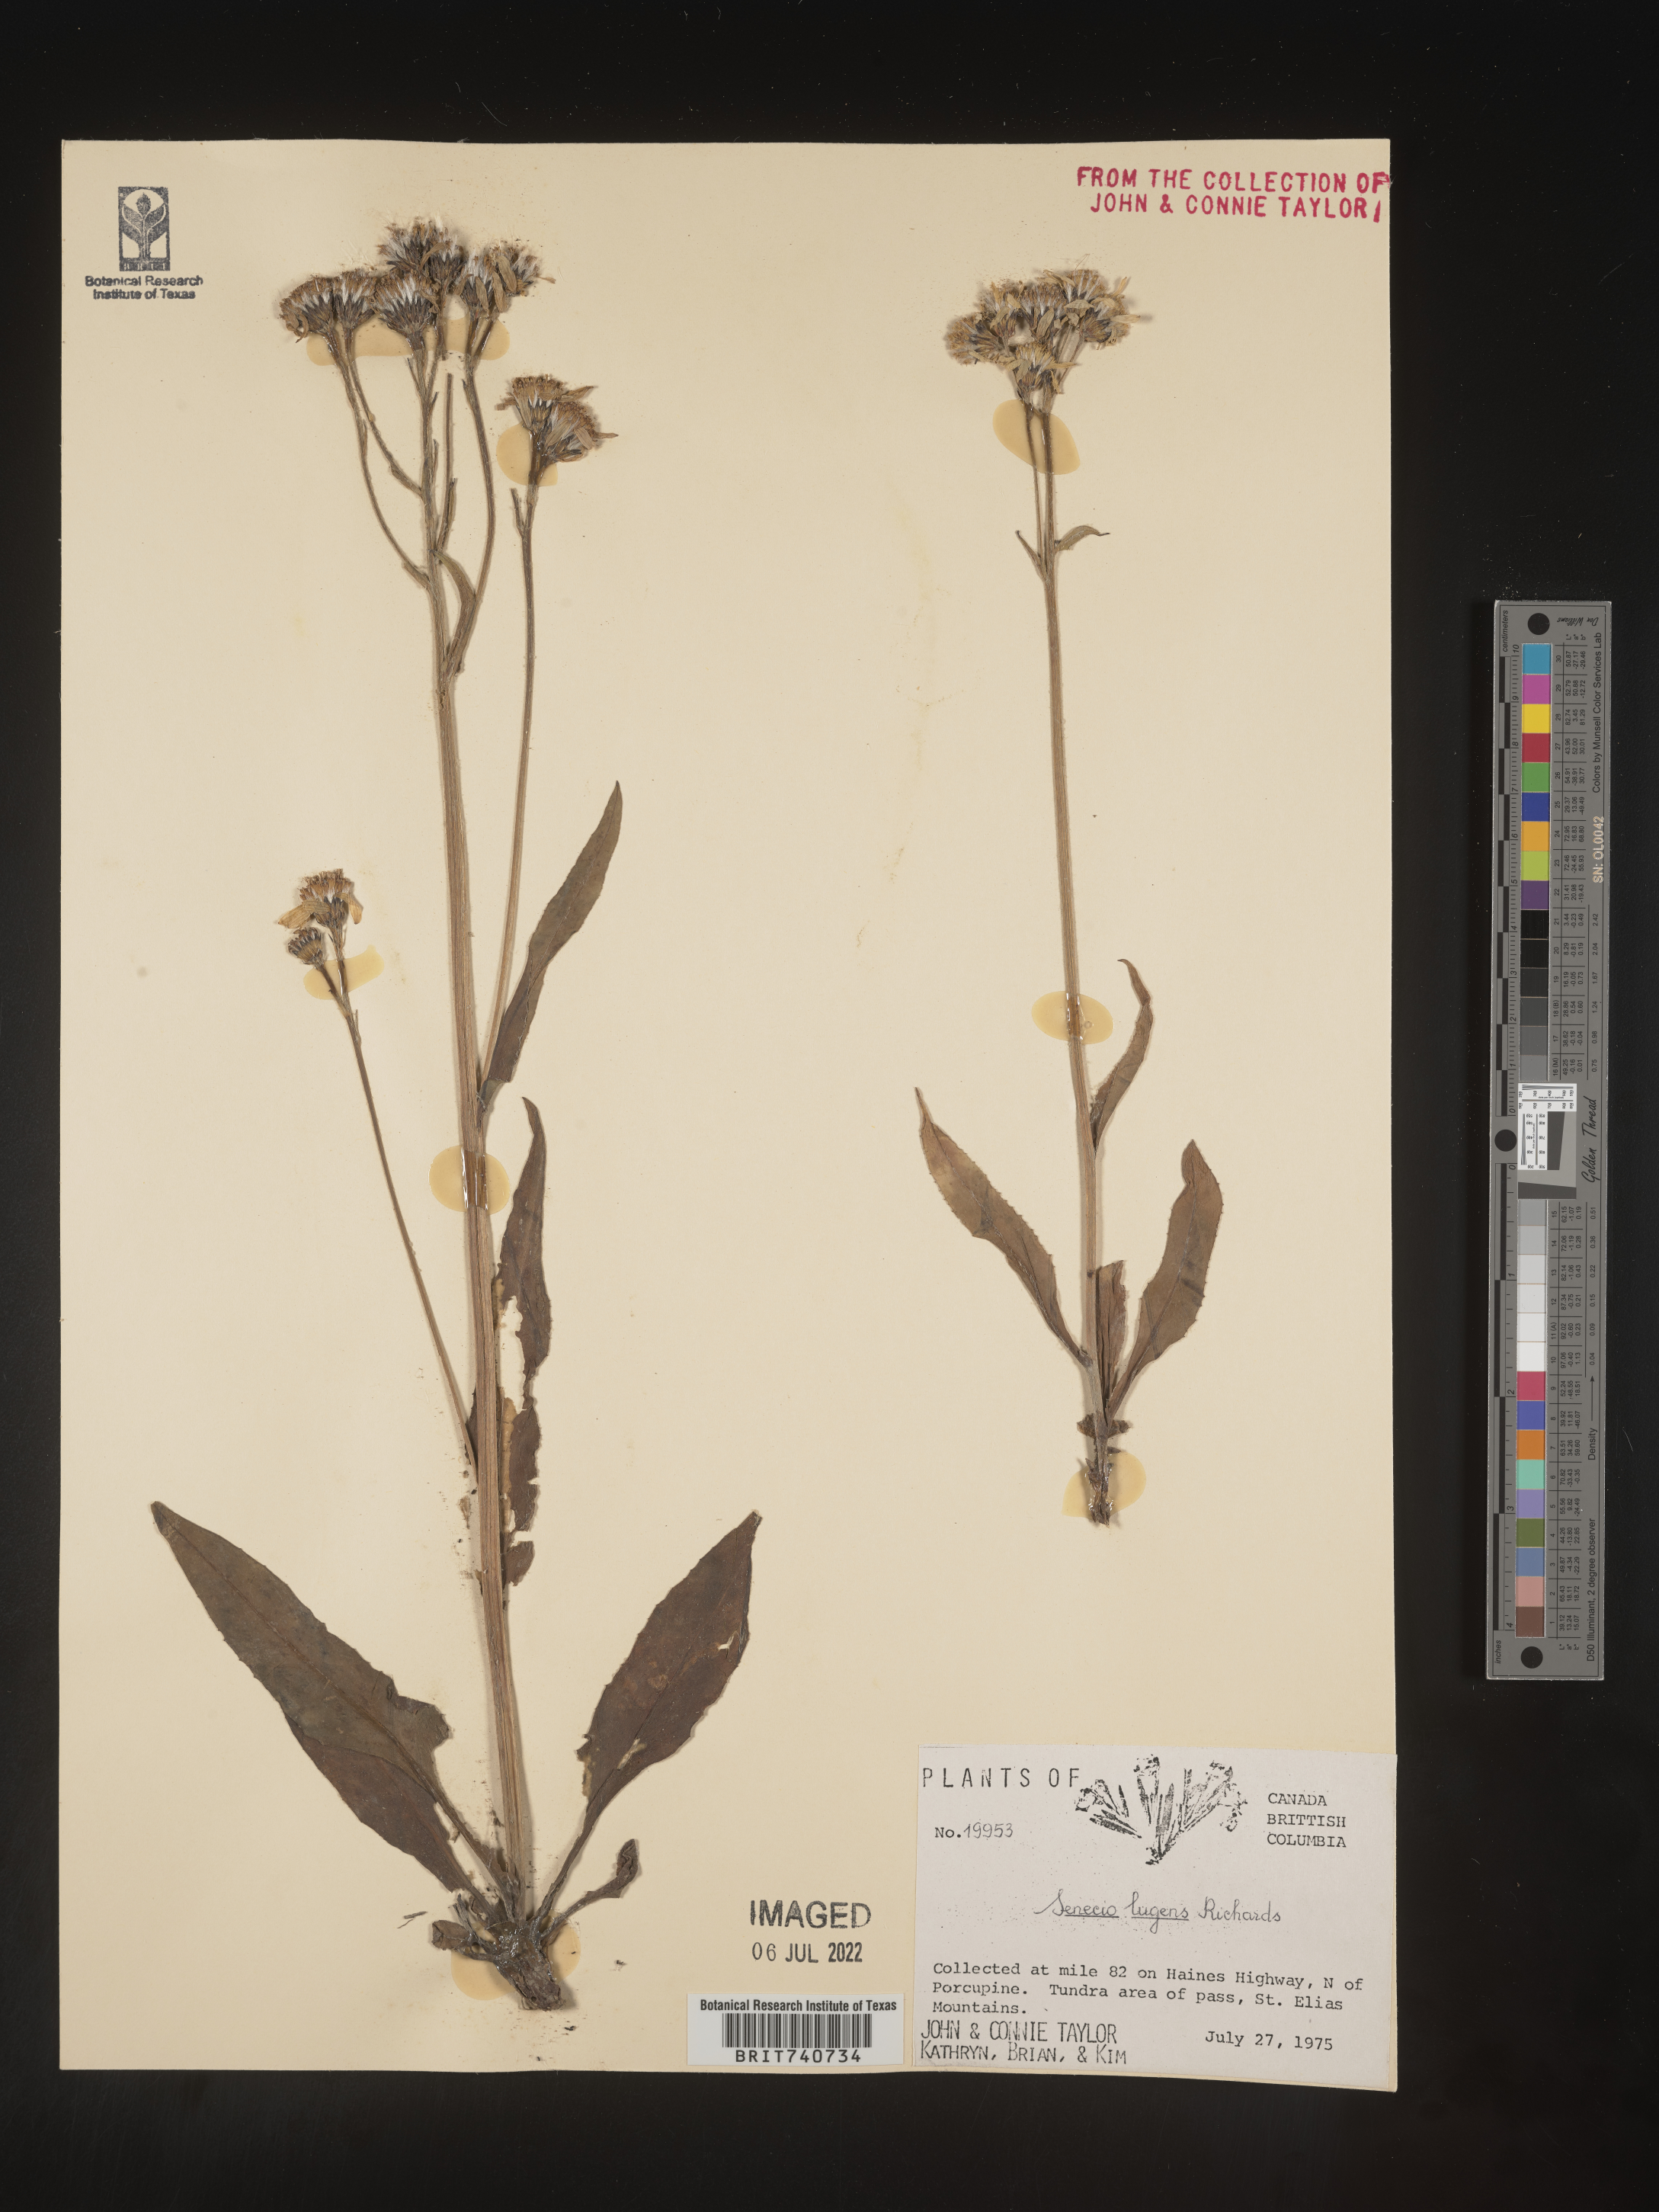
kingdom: Plantae
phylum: Tracheophyta
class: Magnoliopsida
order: Asterales
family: Asteraceae
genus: Senecio
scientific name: Senecio lugens
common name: Black-tip groundsel
